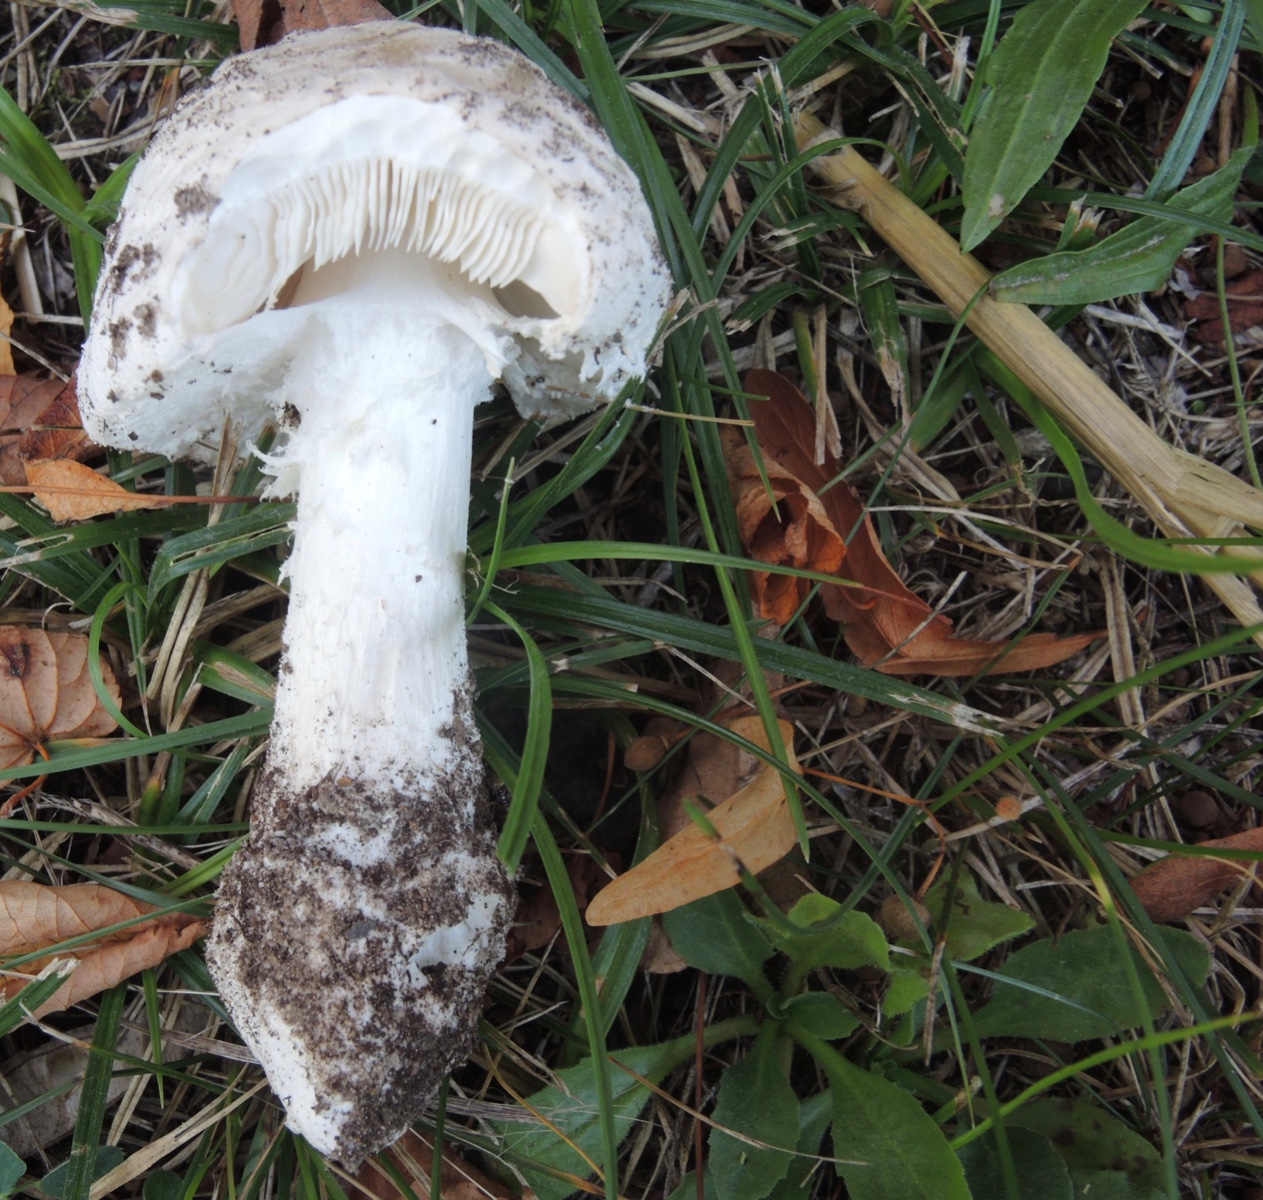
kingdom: Fungi
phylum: Basidiomycota
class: Agaricomycetes
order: Agaricales
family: Amanitaceae
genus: Amanita
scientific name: Amanita
